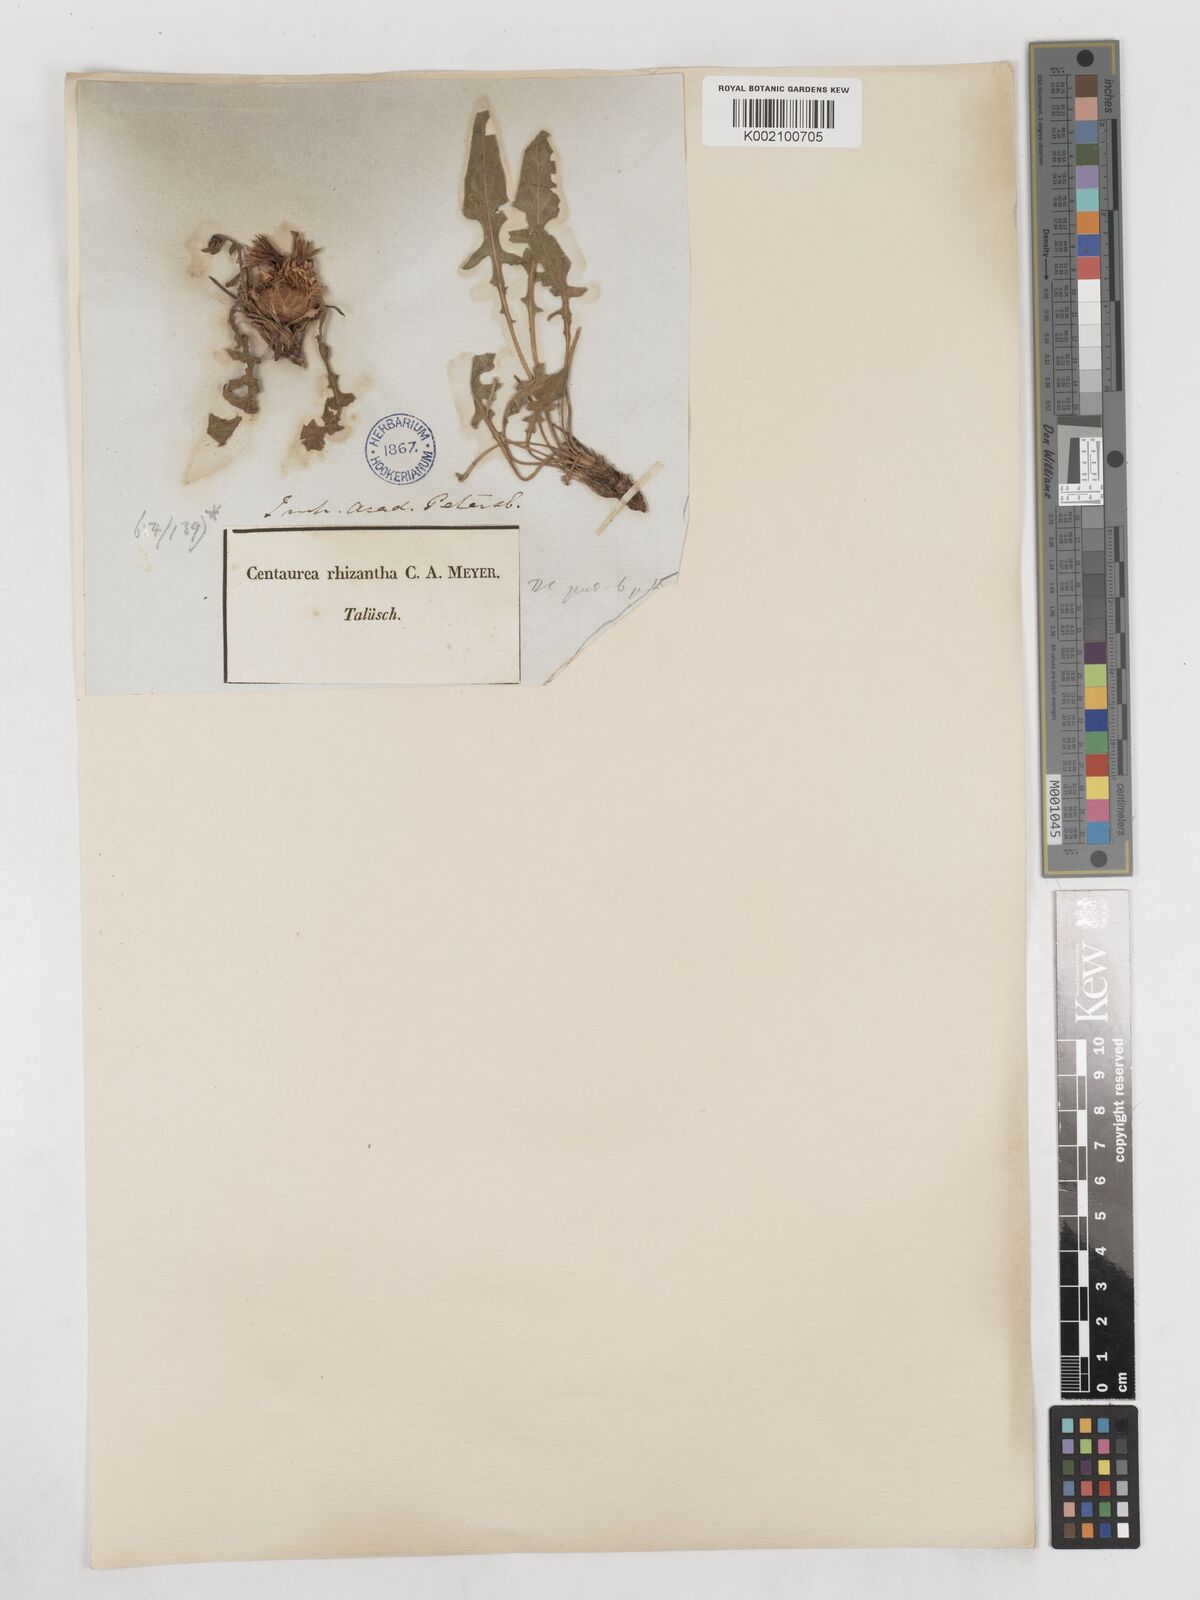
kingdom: Plantae
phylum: Tracheophyta
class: Magnoliopsida
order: Asterales
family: Asteraceae
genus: Centaurea
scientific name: Centaurea rhizantha
